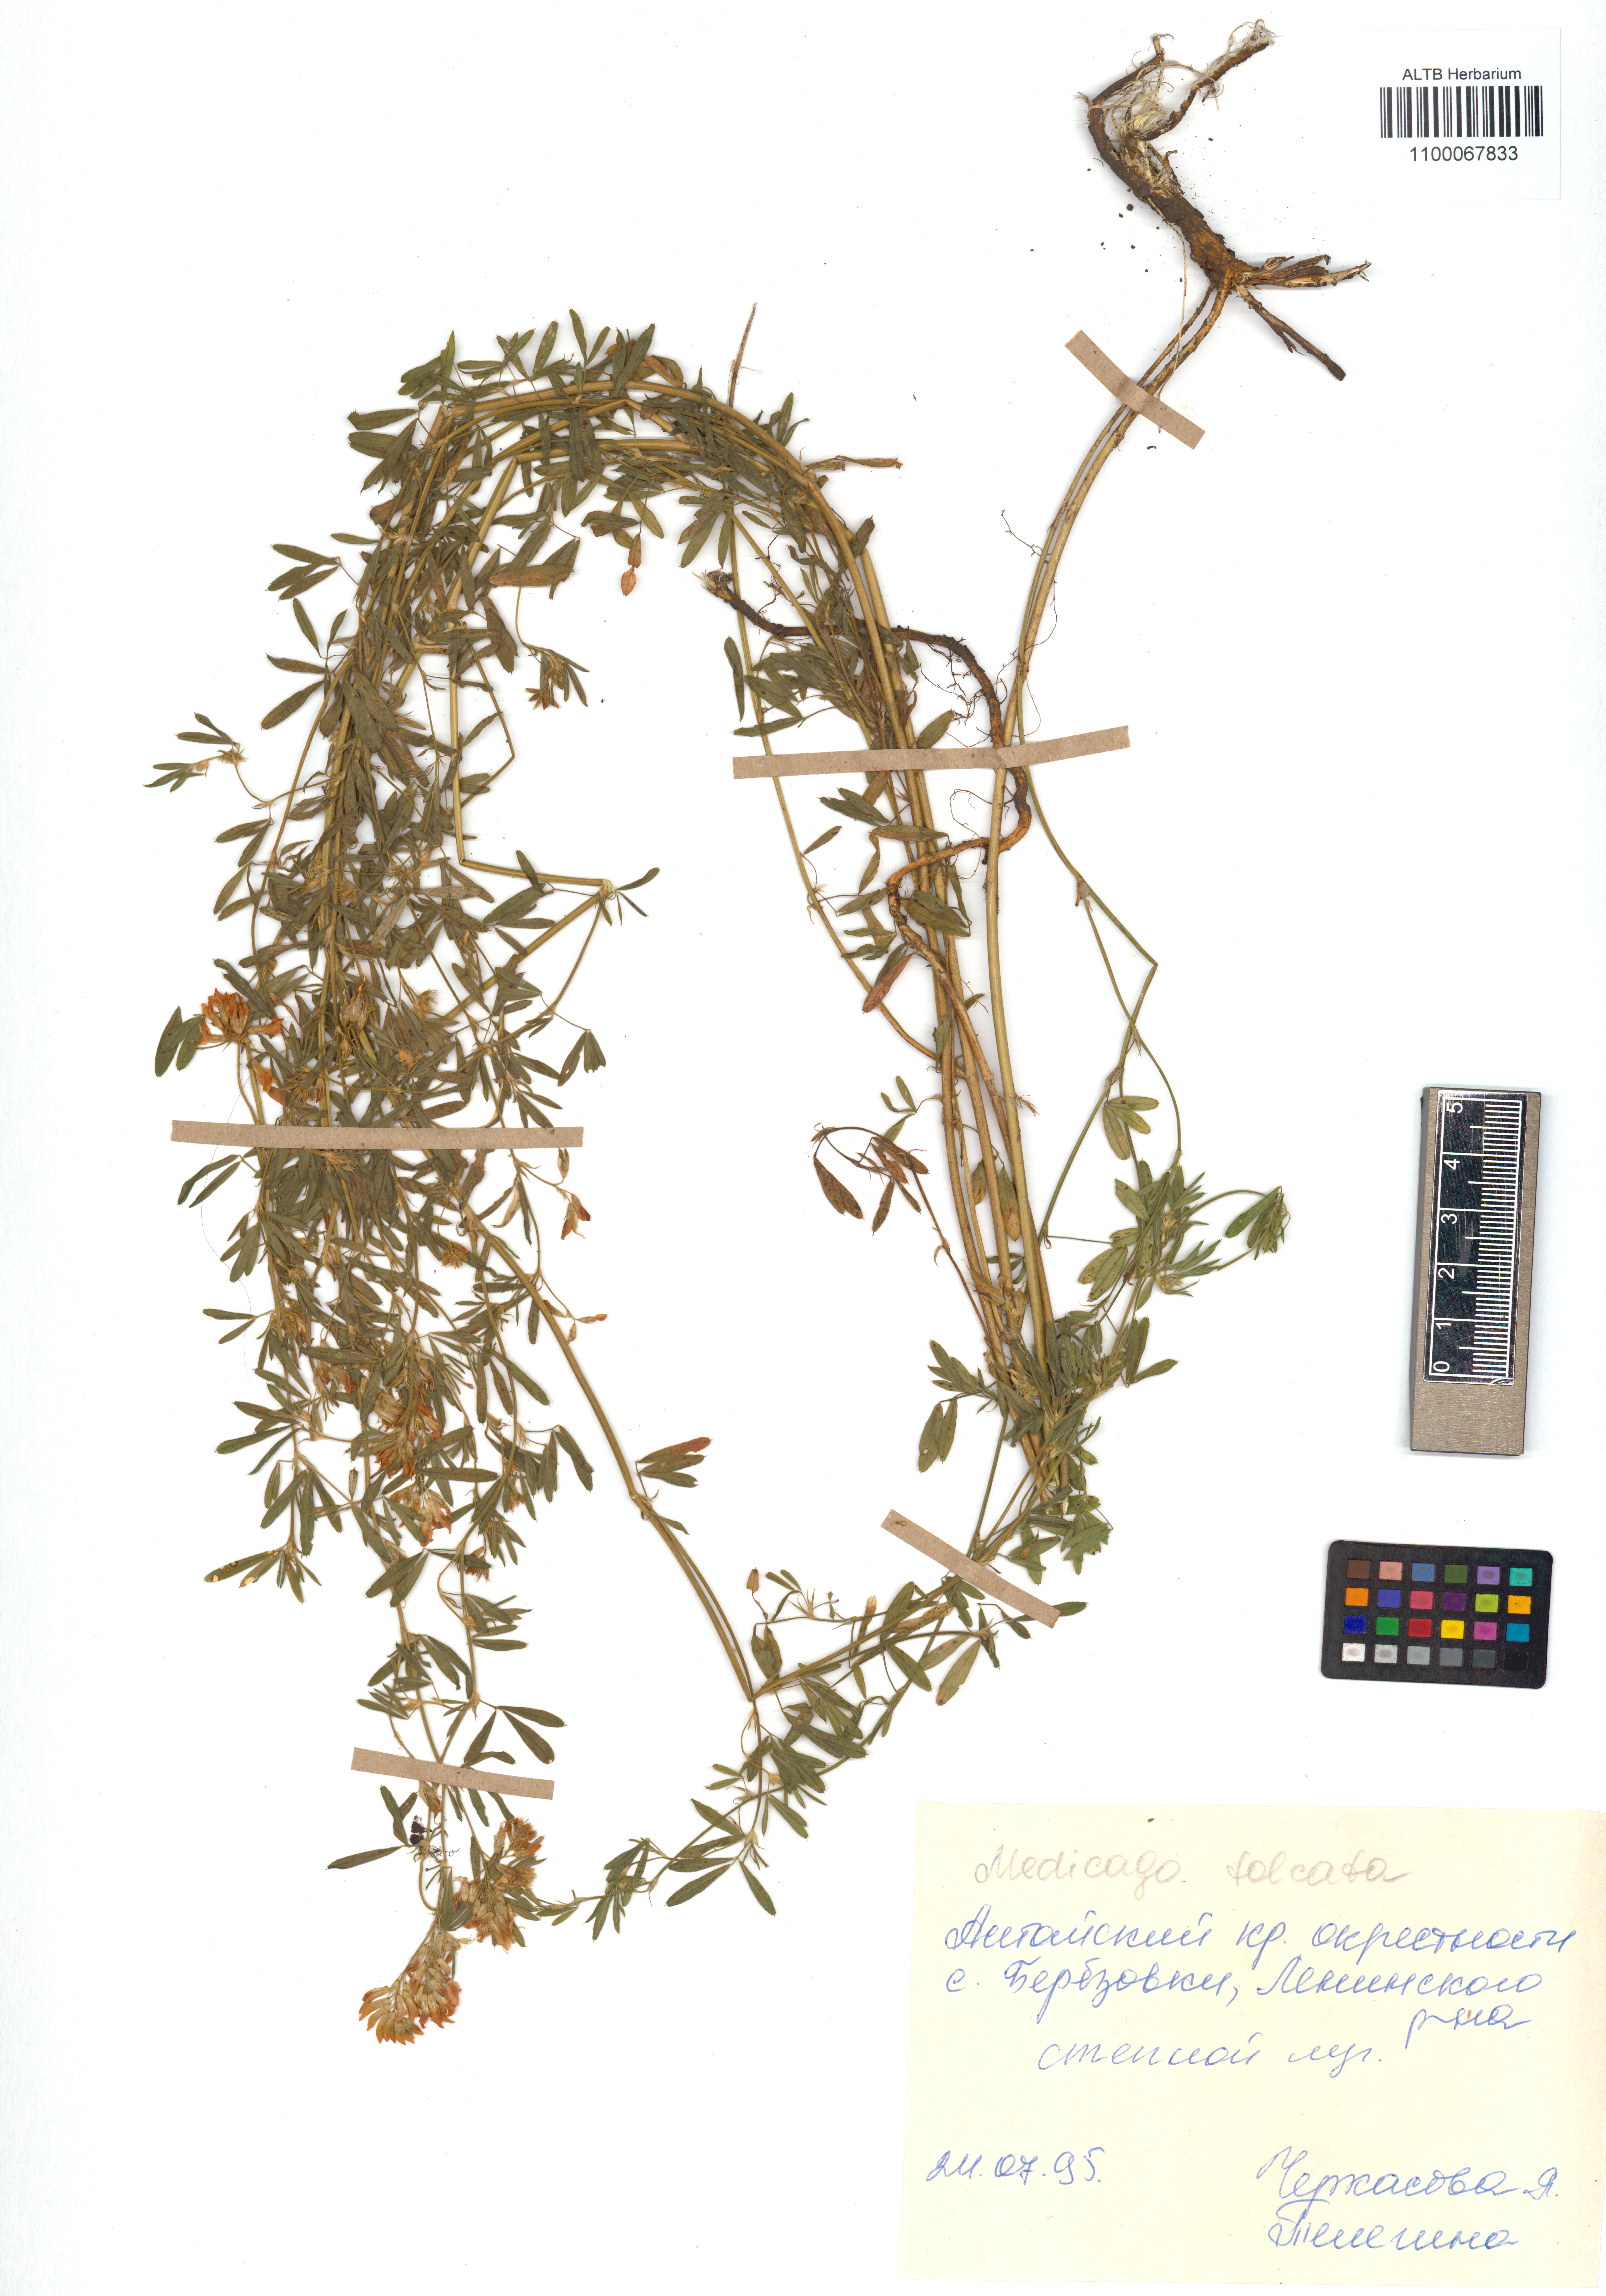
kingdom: Plantae
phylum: Tracheophyta
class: Magnoliopsida
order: Fabales
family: Fabaceae
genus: Medicago
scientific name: Medicago falcata
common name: Sickle medick
